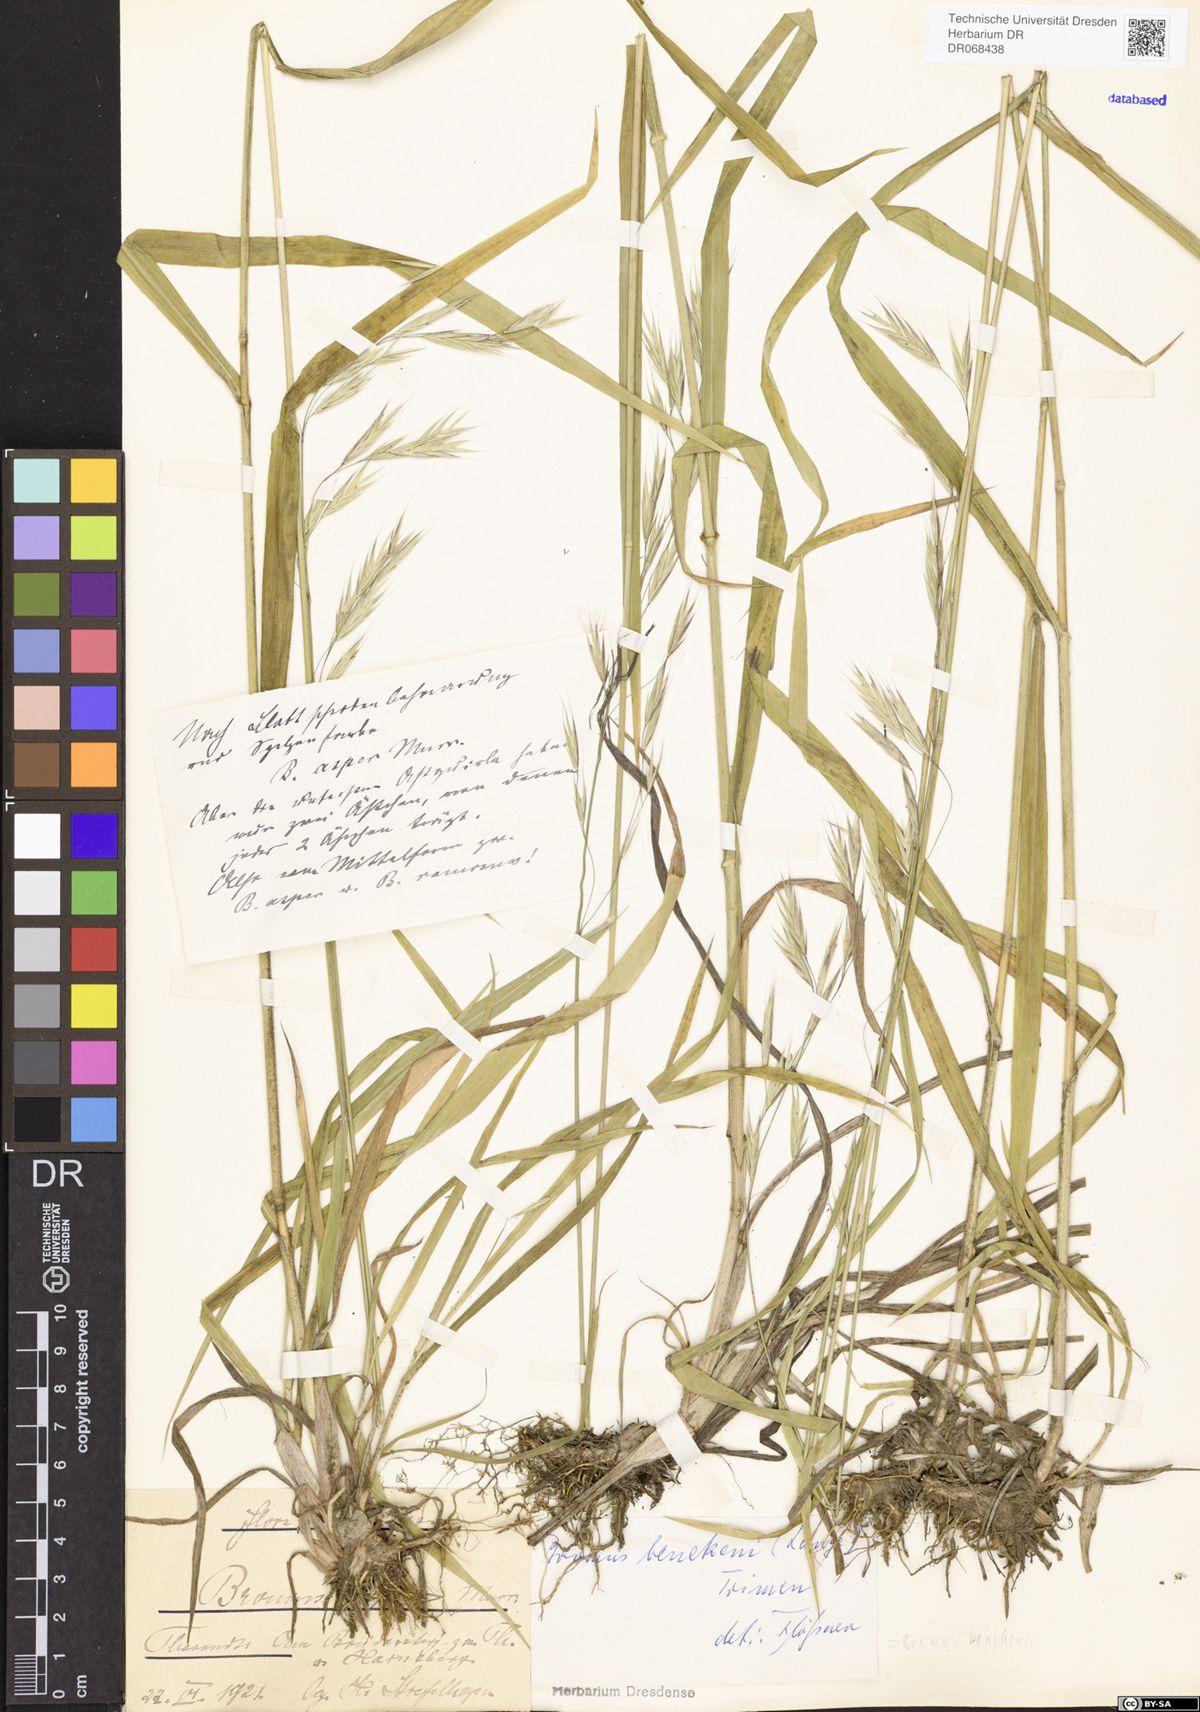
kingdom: Plantae
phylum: Tracheophyta
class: Liliopsida
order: Poales
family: Poaceae
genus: Bromus
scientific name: Bromus benekenii
